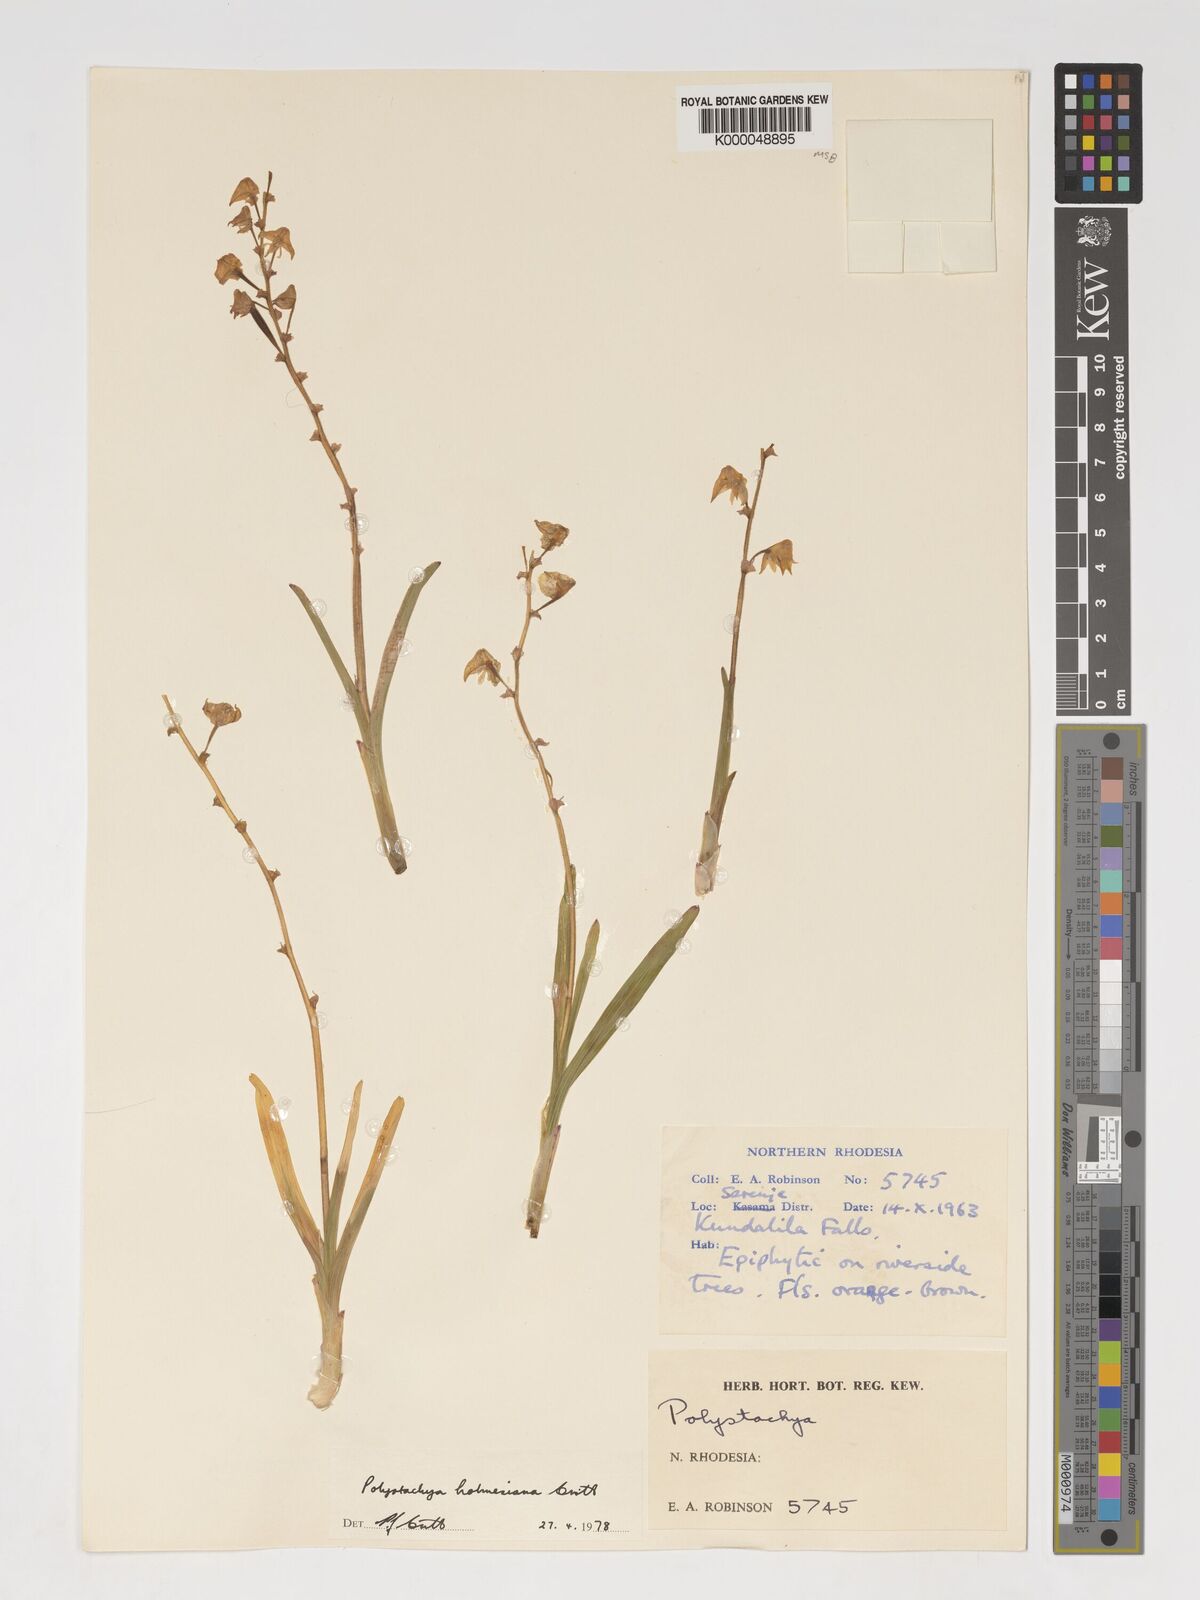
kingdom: Plantae
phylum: Tracheophyta
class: Liliopsida
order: Asparagales
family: Orchidaceae
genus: Polystachya
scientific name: Polystachya holmesiana
